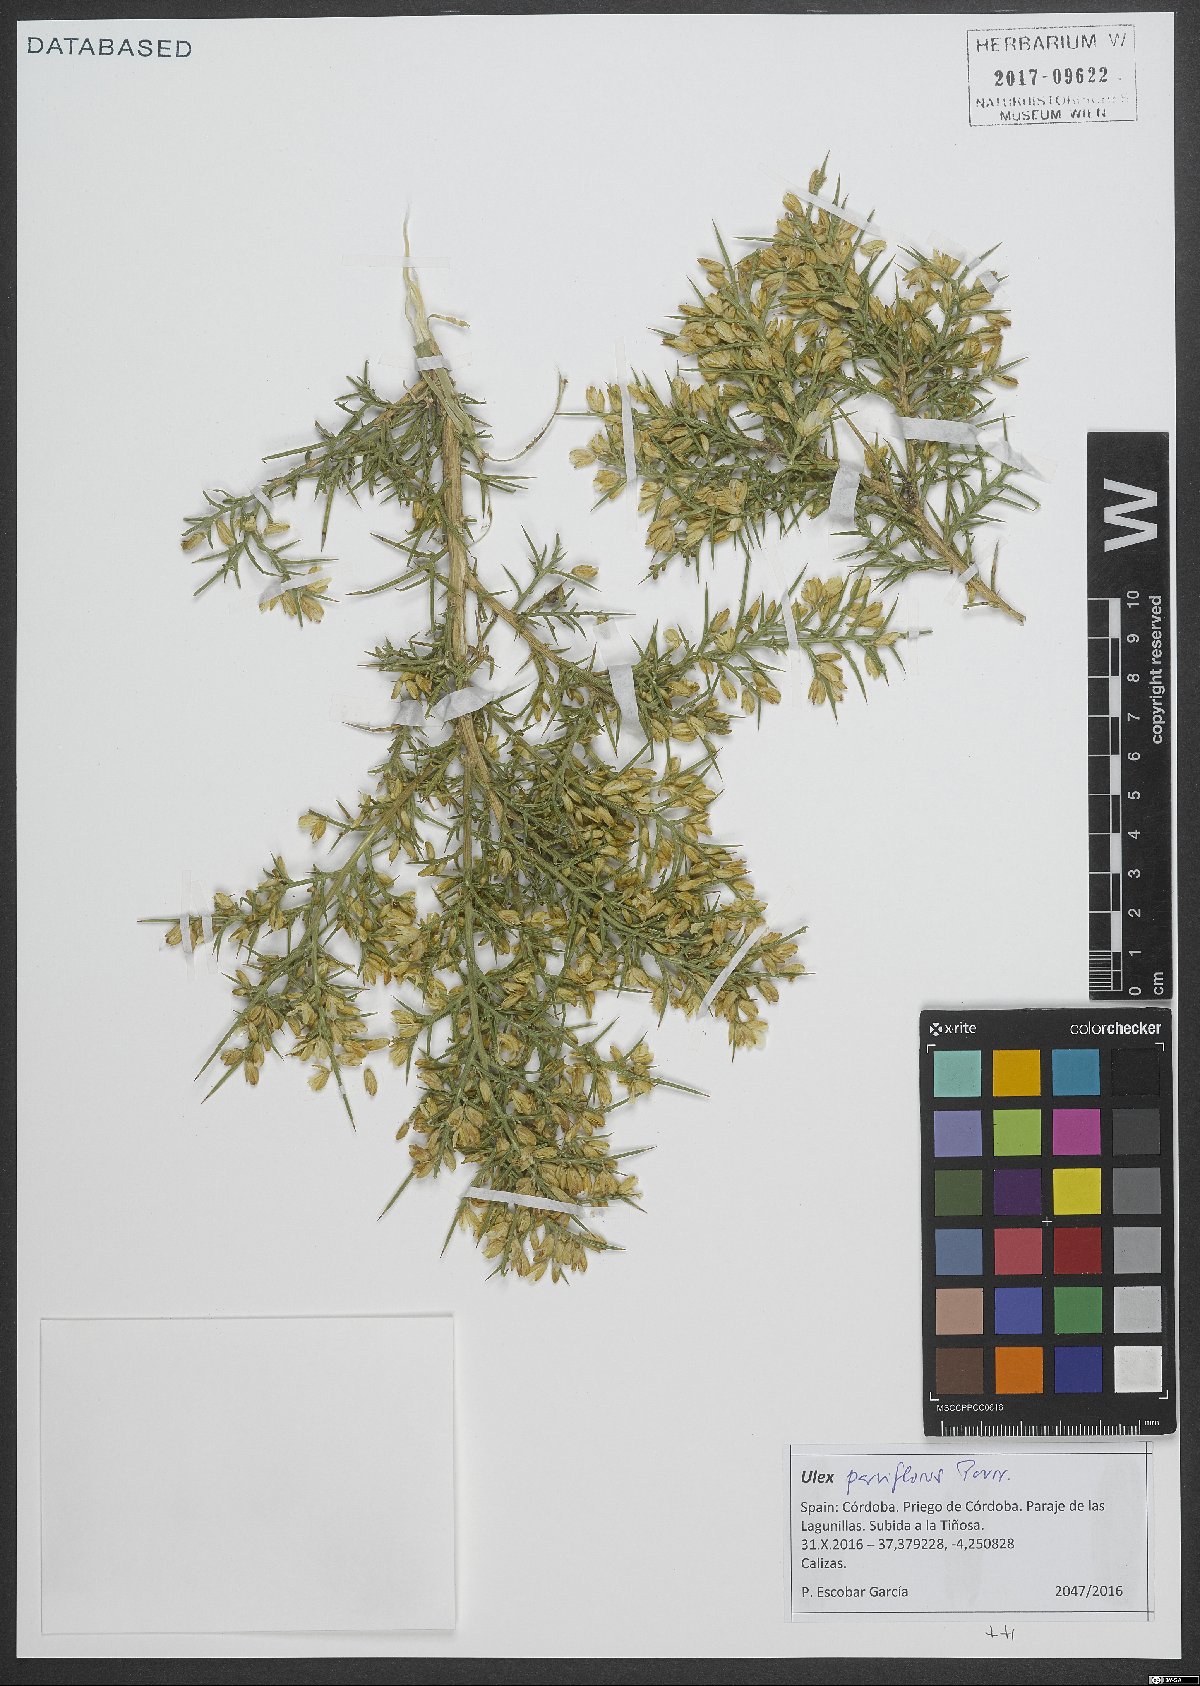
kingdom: Plantae
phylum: Tracheophyta
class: Magnoliopsida
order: Fabales
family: Fabaceae
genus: Ulex
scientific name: Ulex parviflorus
